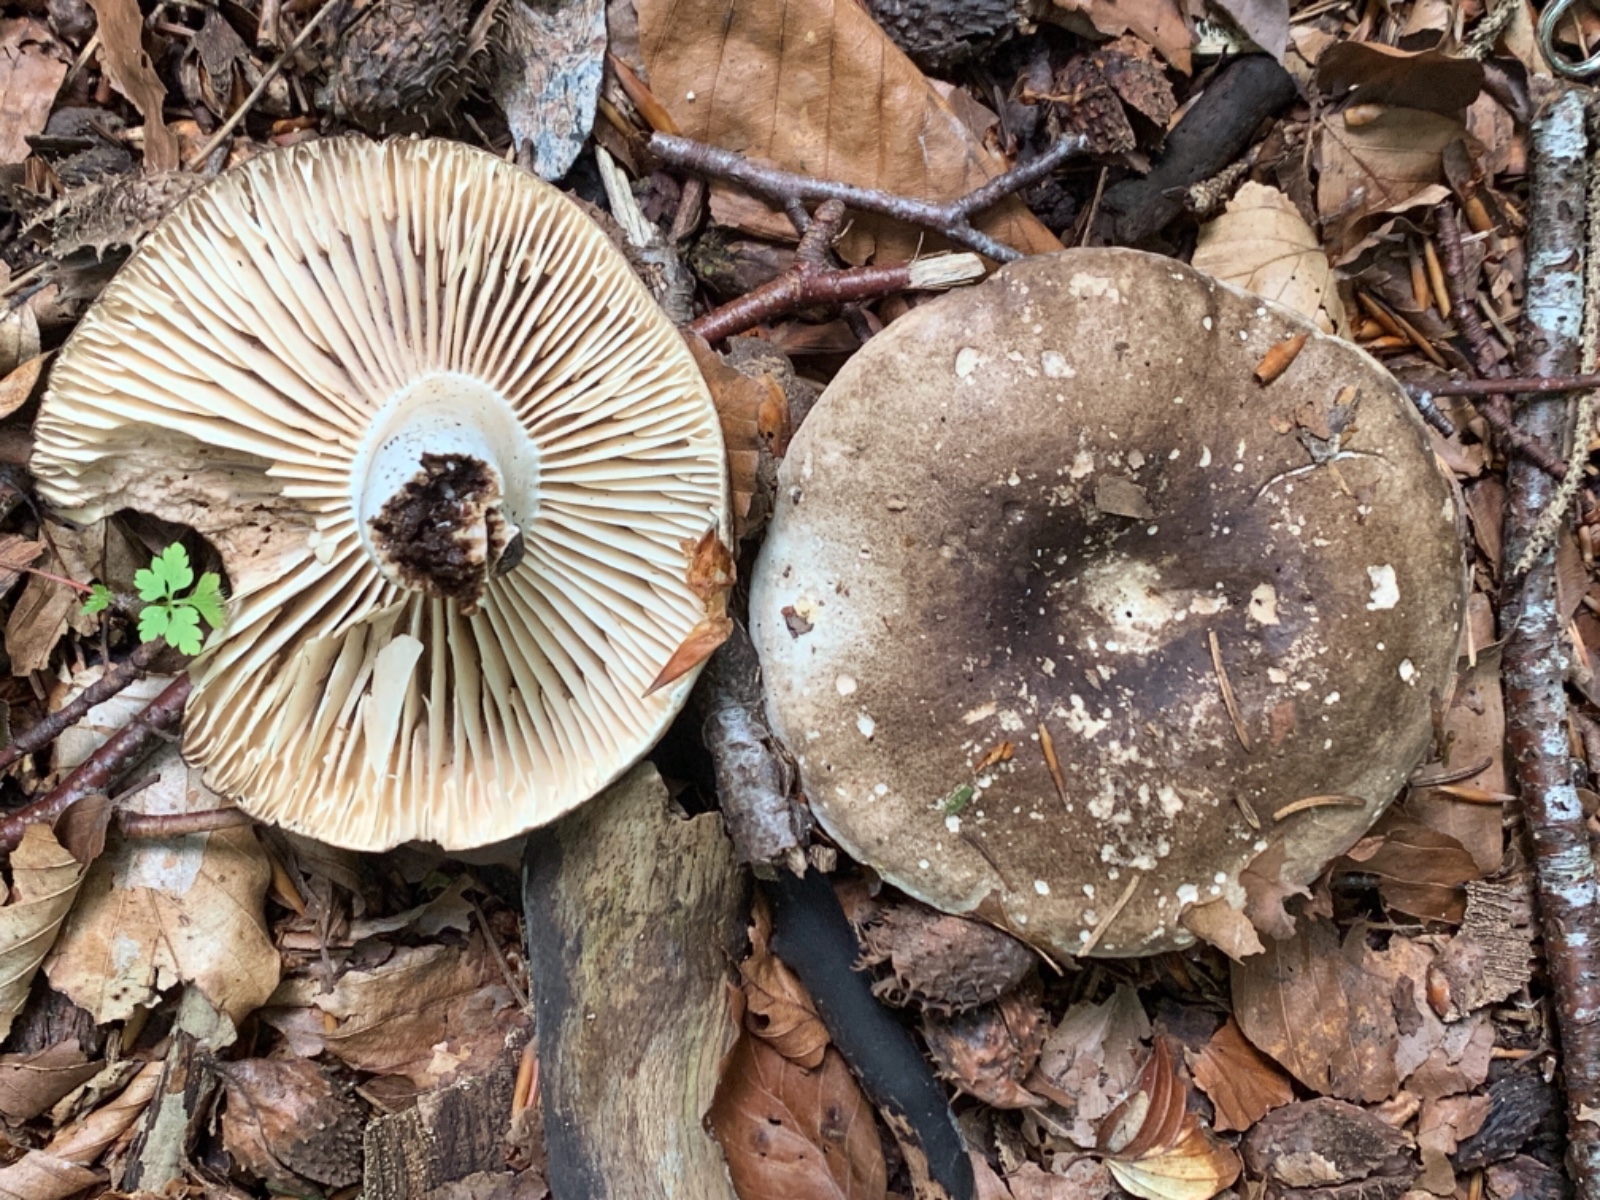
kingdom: Fungi
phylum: Basidiomycota
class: Agaricomycetes
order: Russulales
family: Russulaceae
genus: Russula
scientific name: Russula adusta
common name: sværtende skørhat
